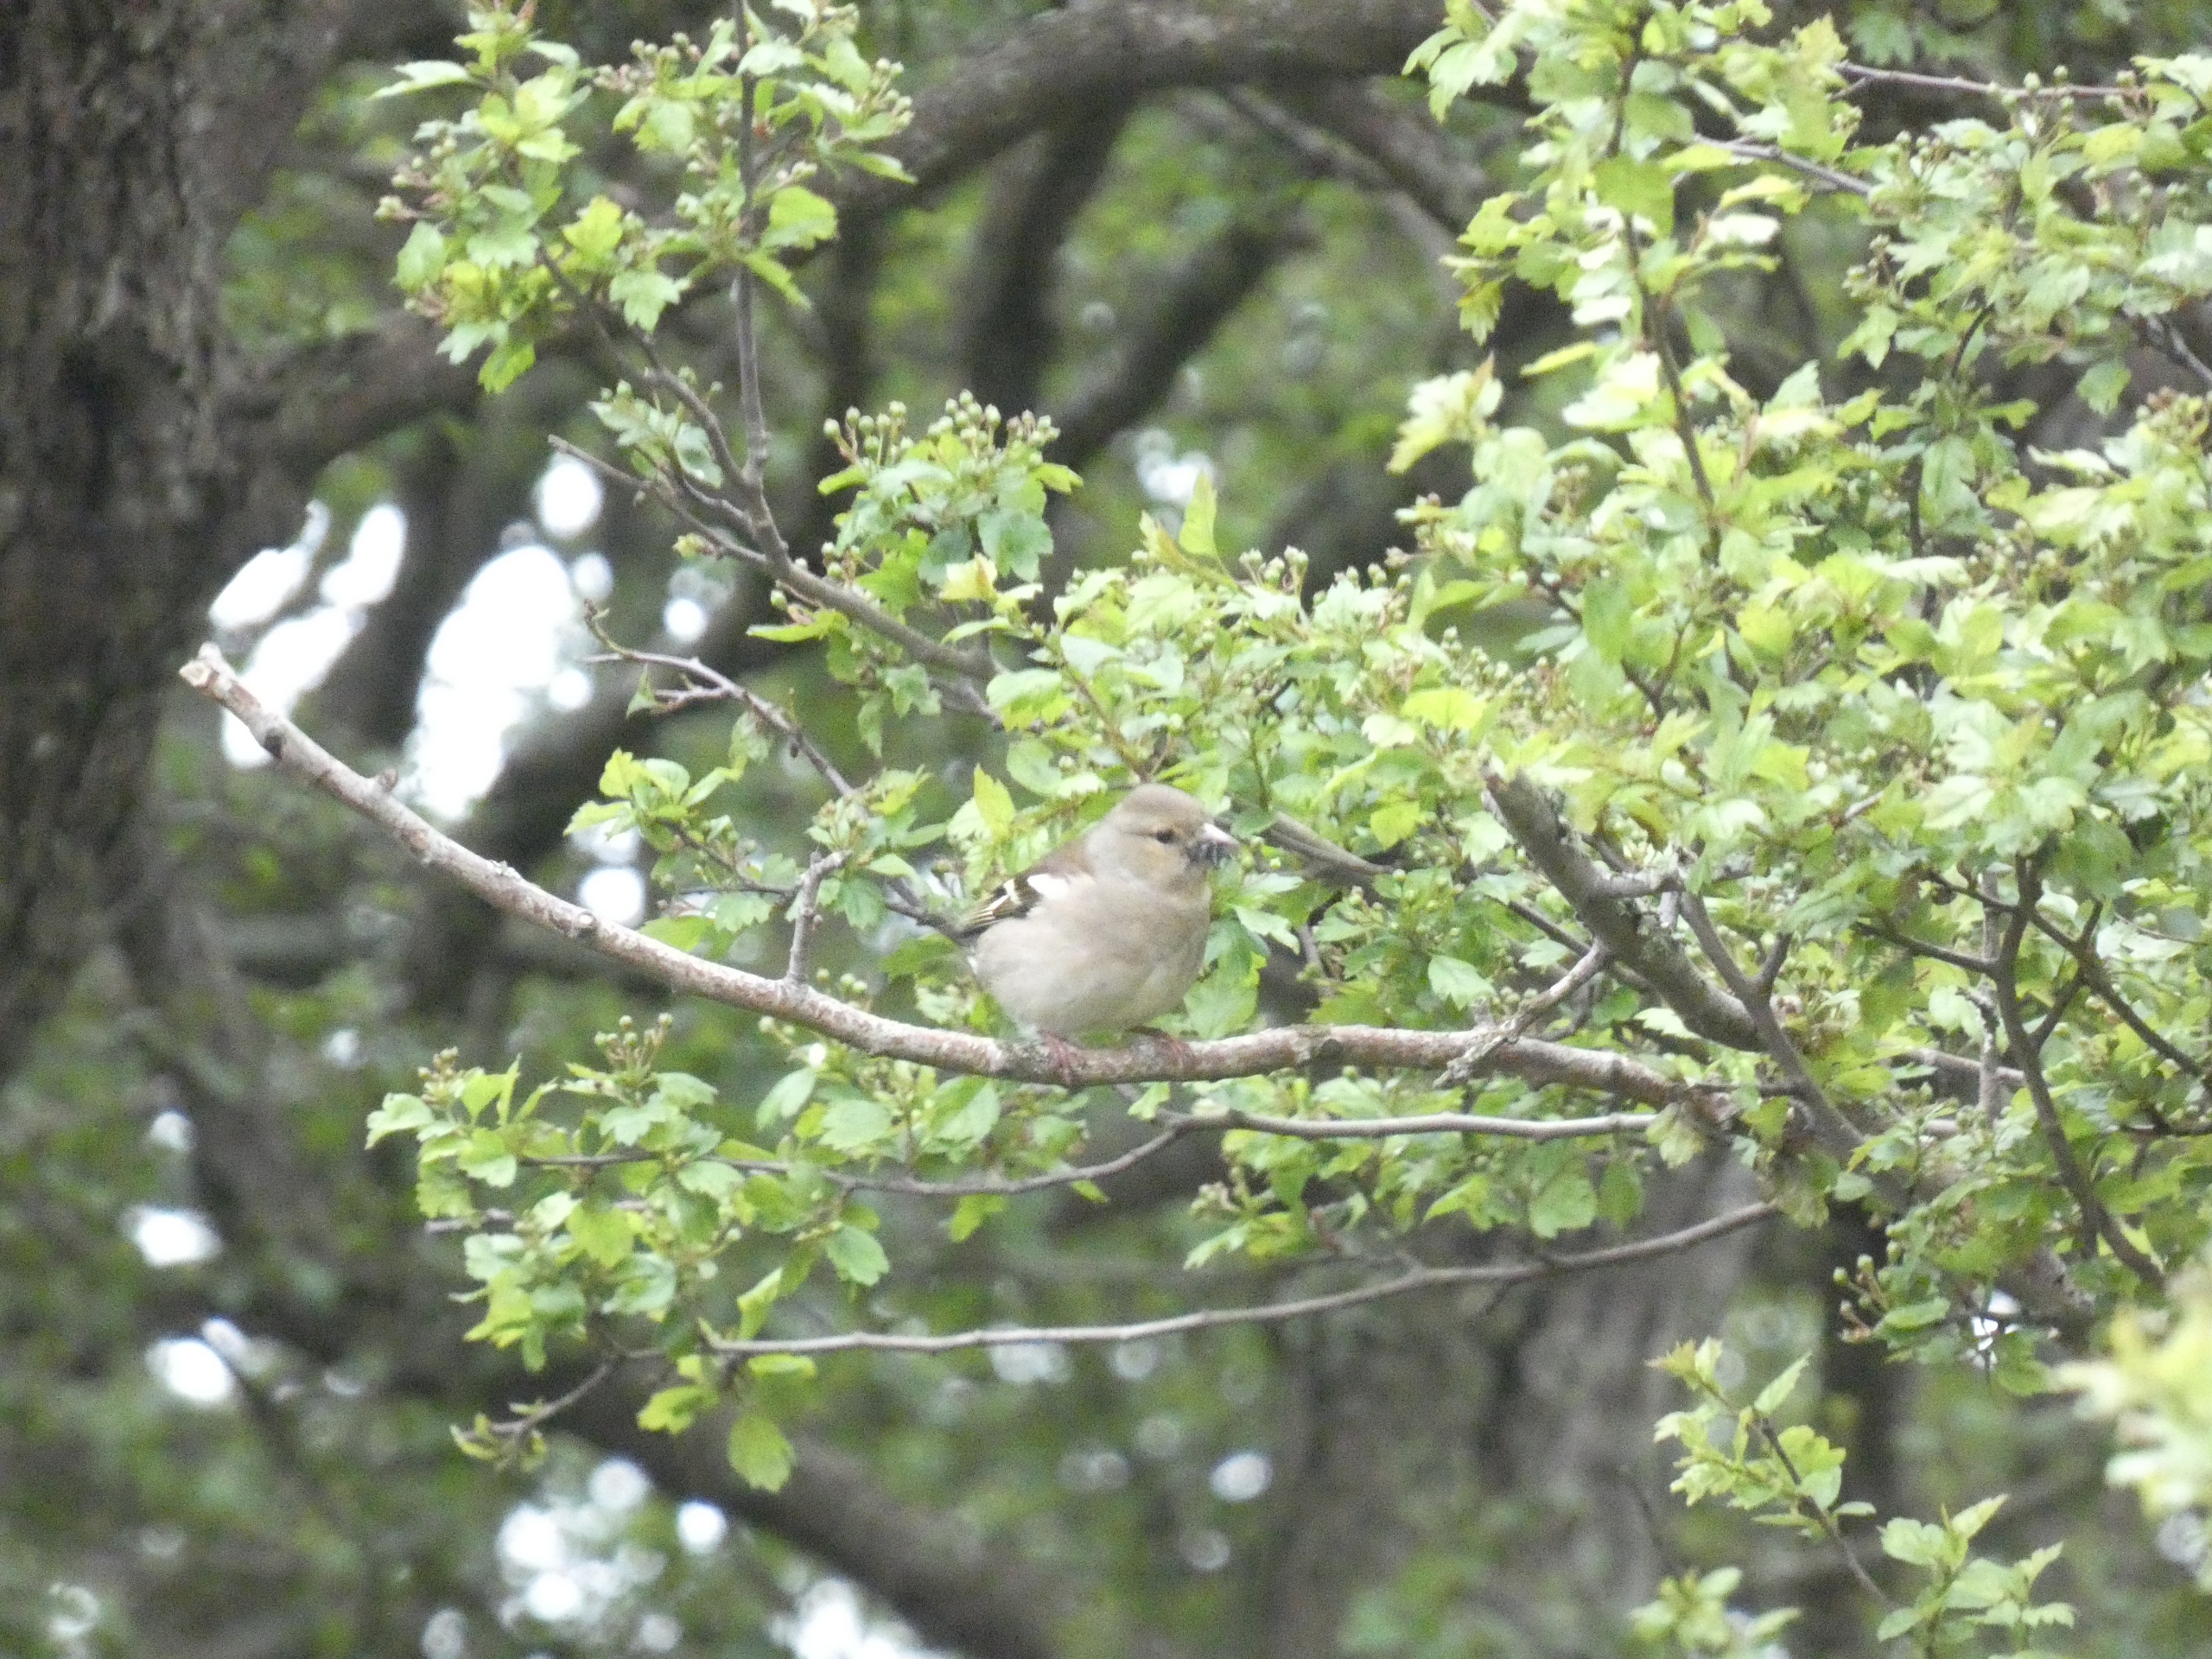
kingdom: Animalia
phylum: Chordata
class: Aves
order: Passeriformes
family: Fringillidae
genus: Fringilla
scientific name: Fringilla coelebs
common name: Bogfinke
